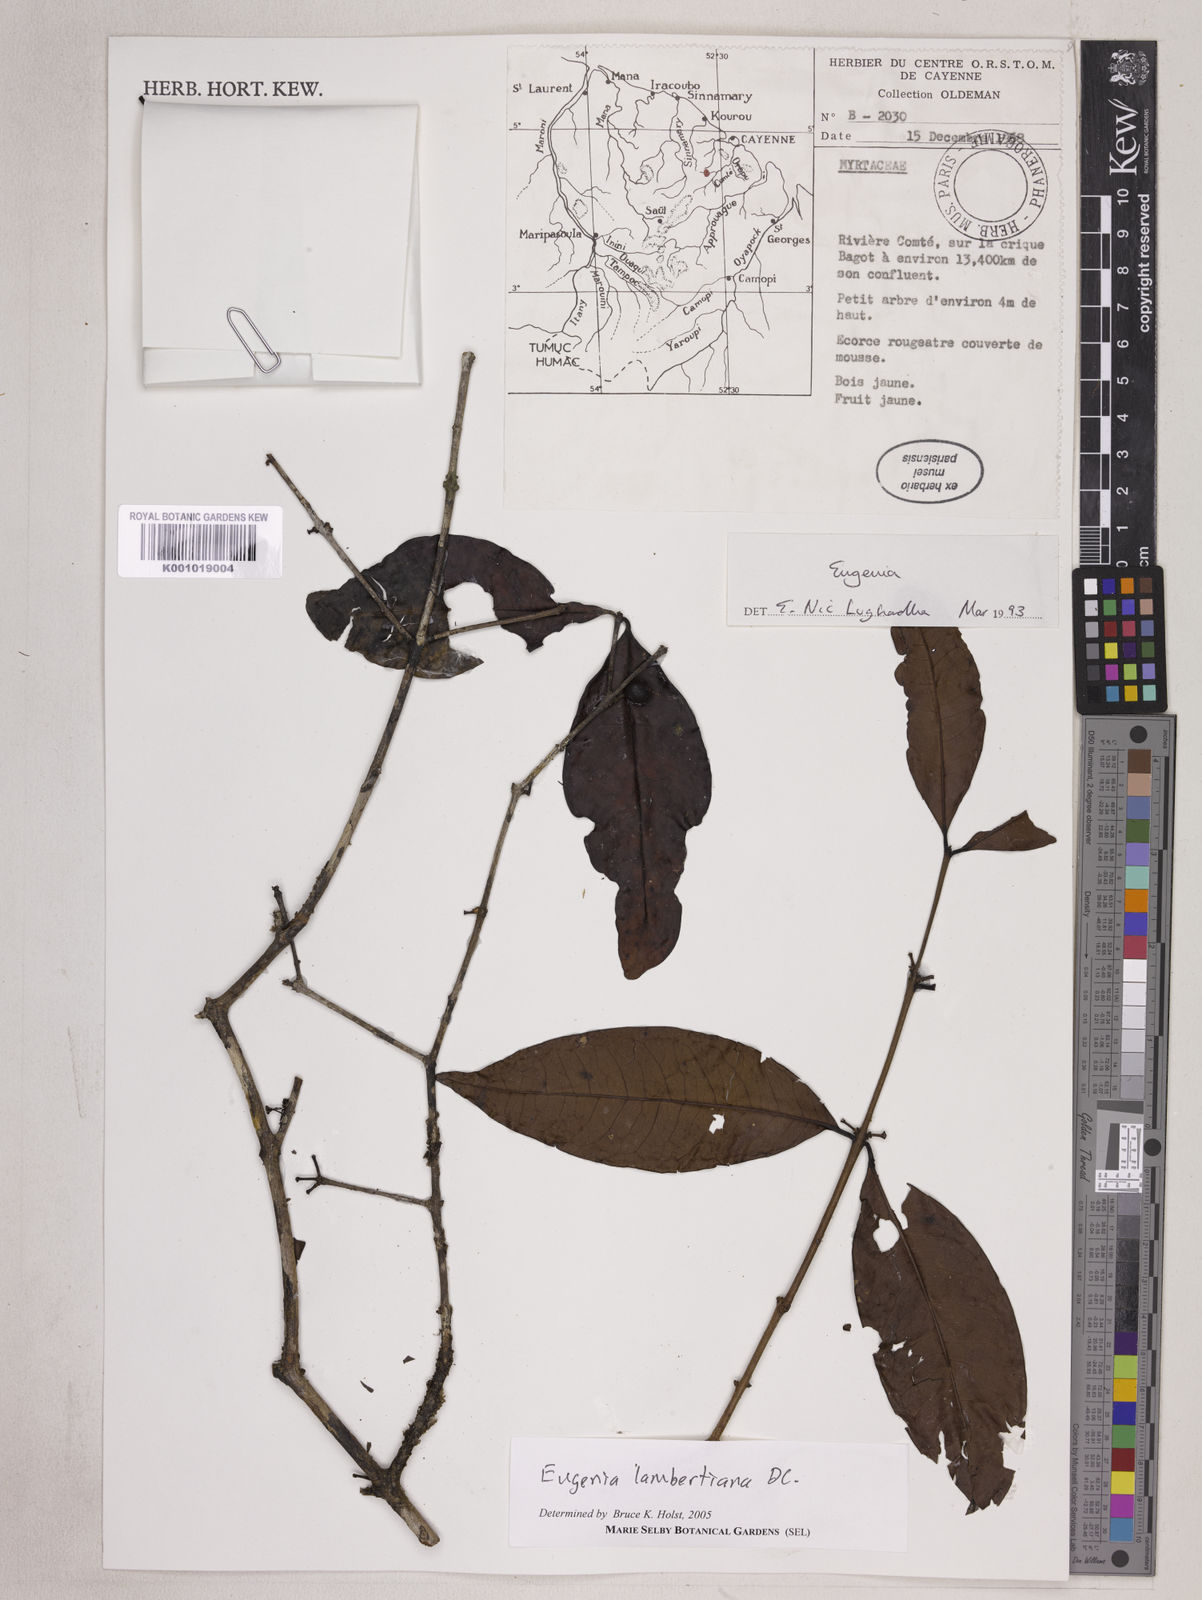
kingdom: Plantae
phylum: Tracheophyta
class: Magnoliopsida
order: Myrtales
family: Myrtaceae
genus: Eugenia
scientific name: Eugenia lambertiana
